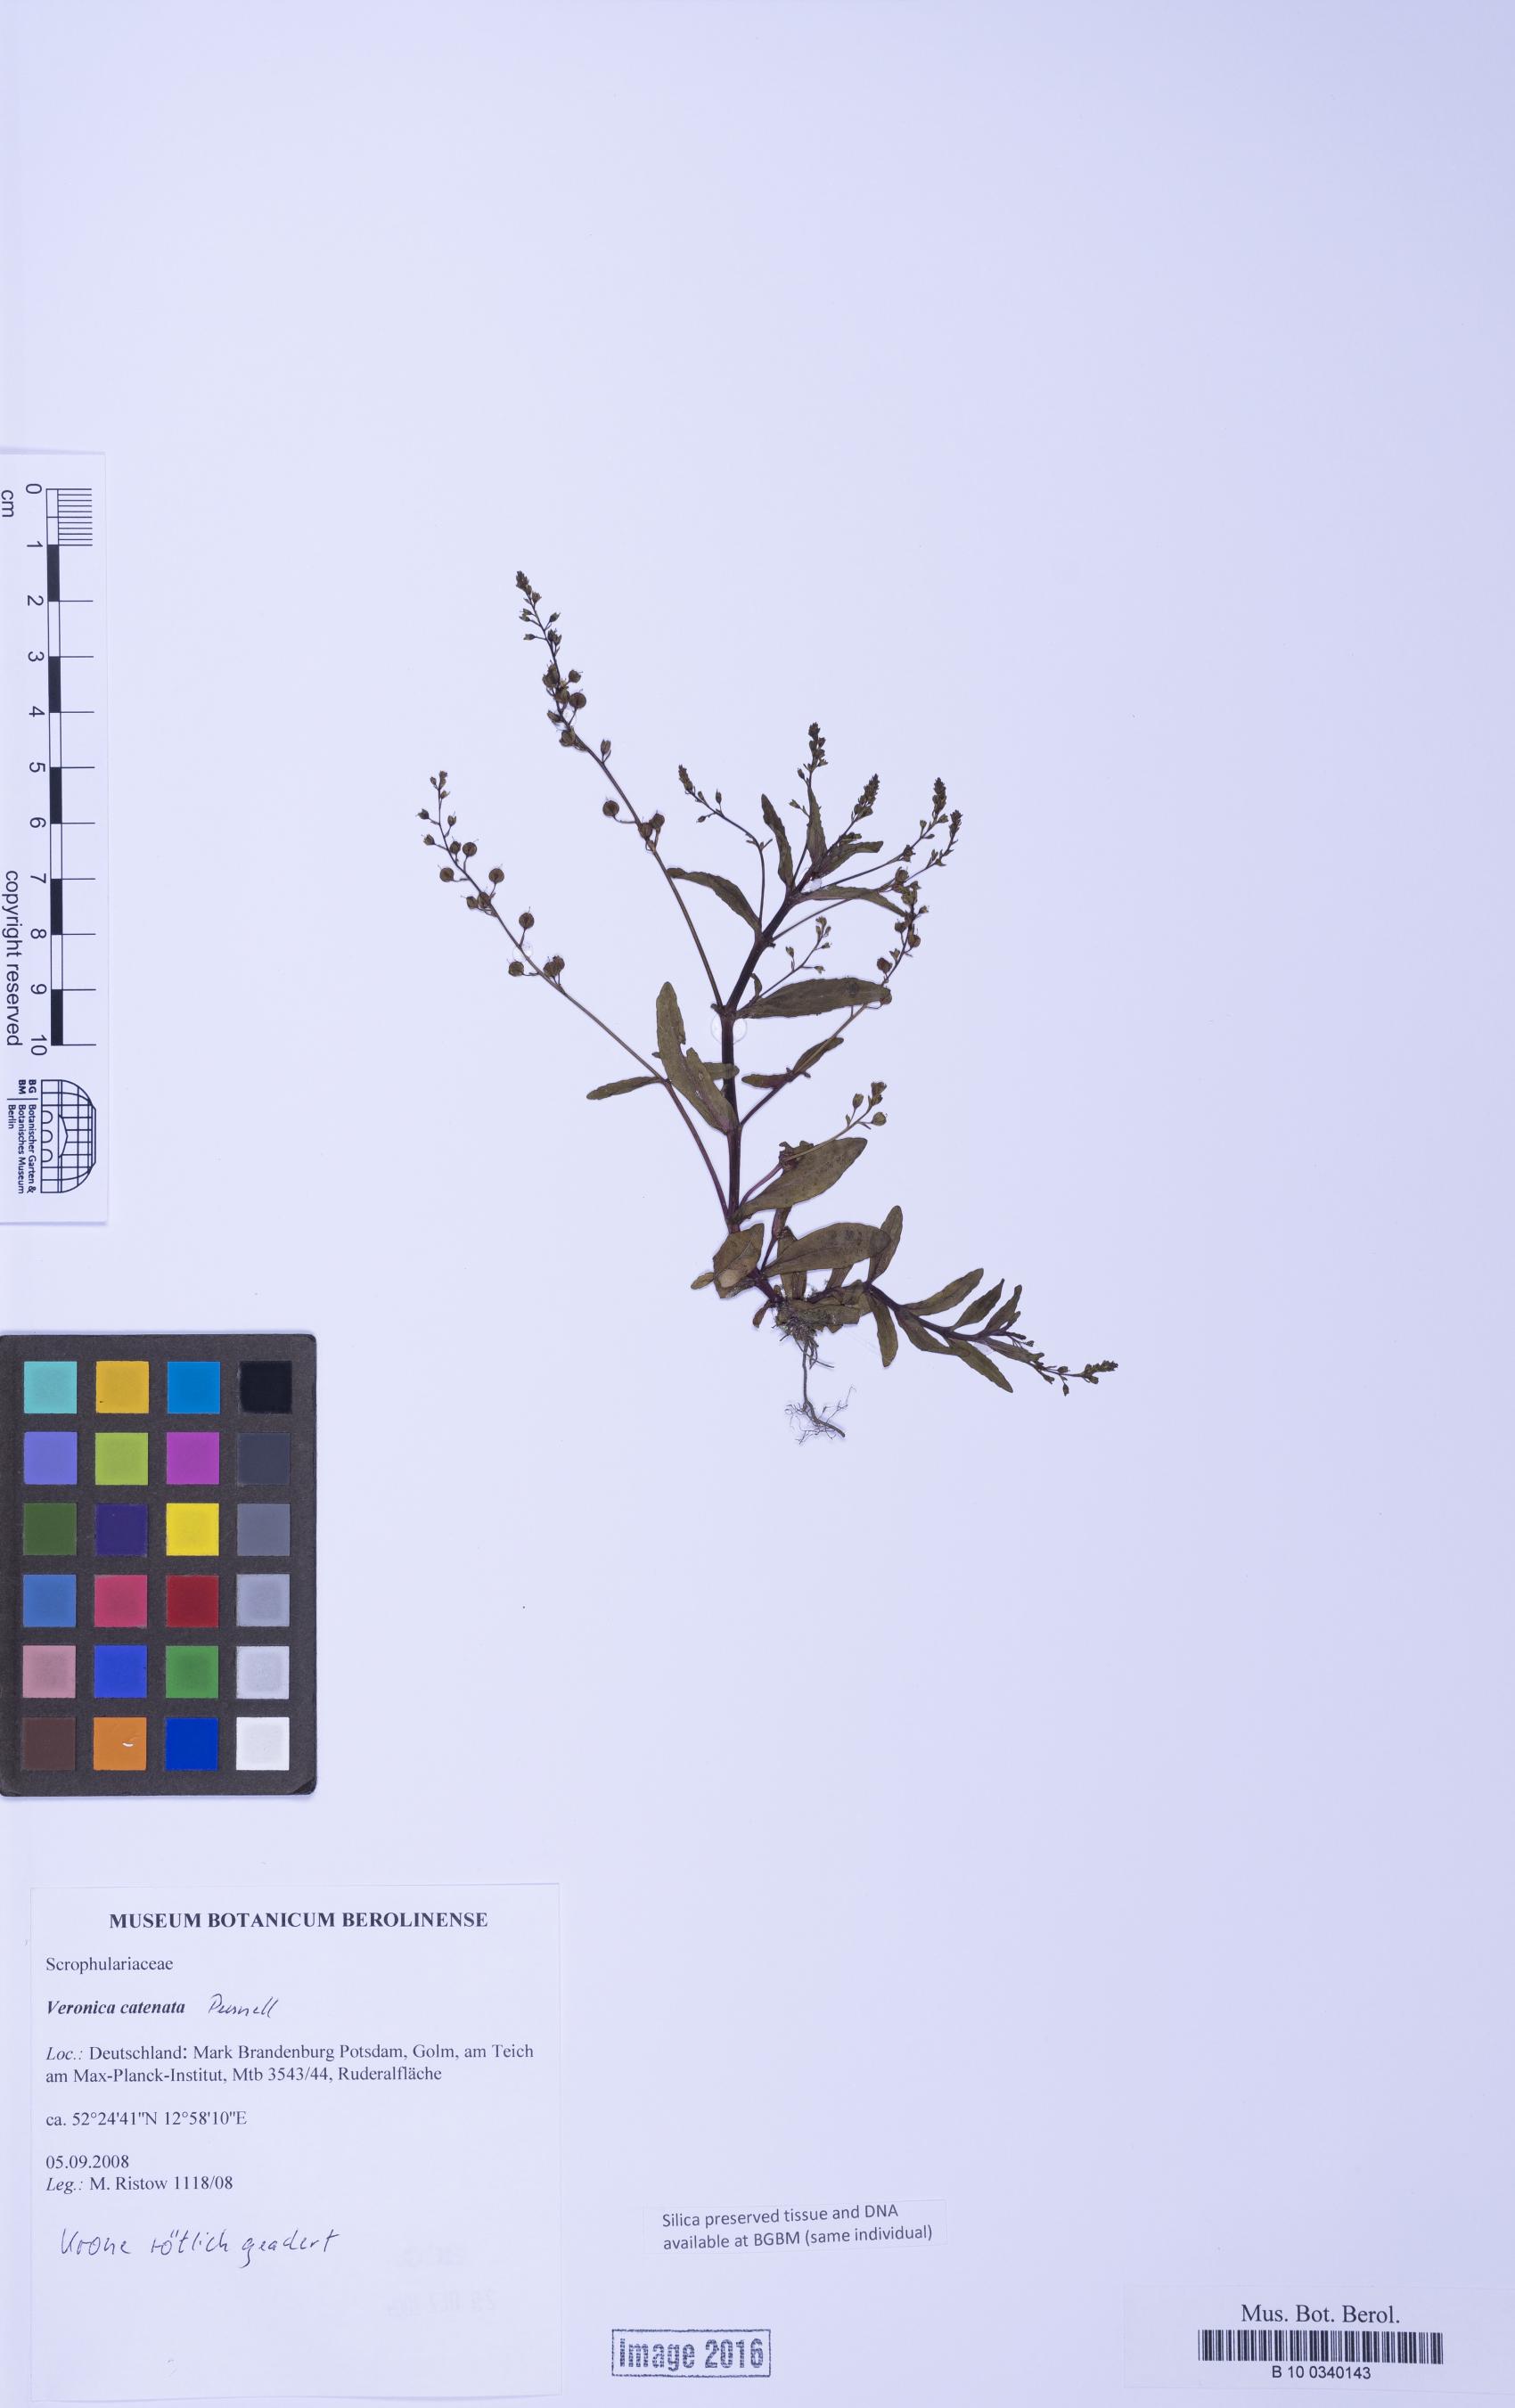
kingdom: Plantae
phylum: Tracheophyta
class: Magnoliopsida
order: Lamiales
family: Plantaginaceae
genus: Veronica
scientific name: Veronica catenata
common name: Pink water-speedwell
